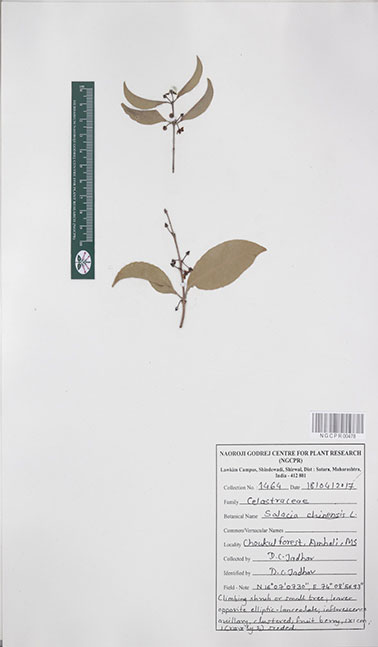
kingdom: Plantae
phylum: Tracheophyta
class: Magnoliopsida
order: Celastrales
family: Celastraceae
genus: Salacia
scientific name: Salacia chinensis
